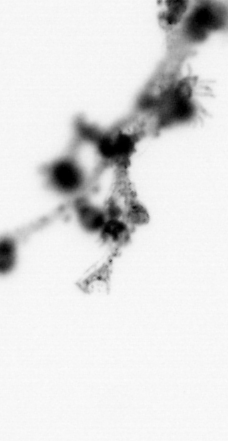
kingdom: Animalia
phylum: Cnidaria
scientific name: Cnidaria
